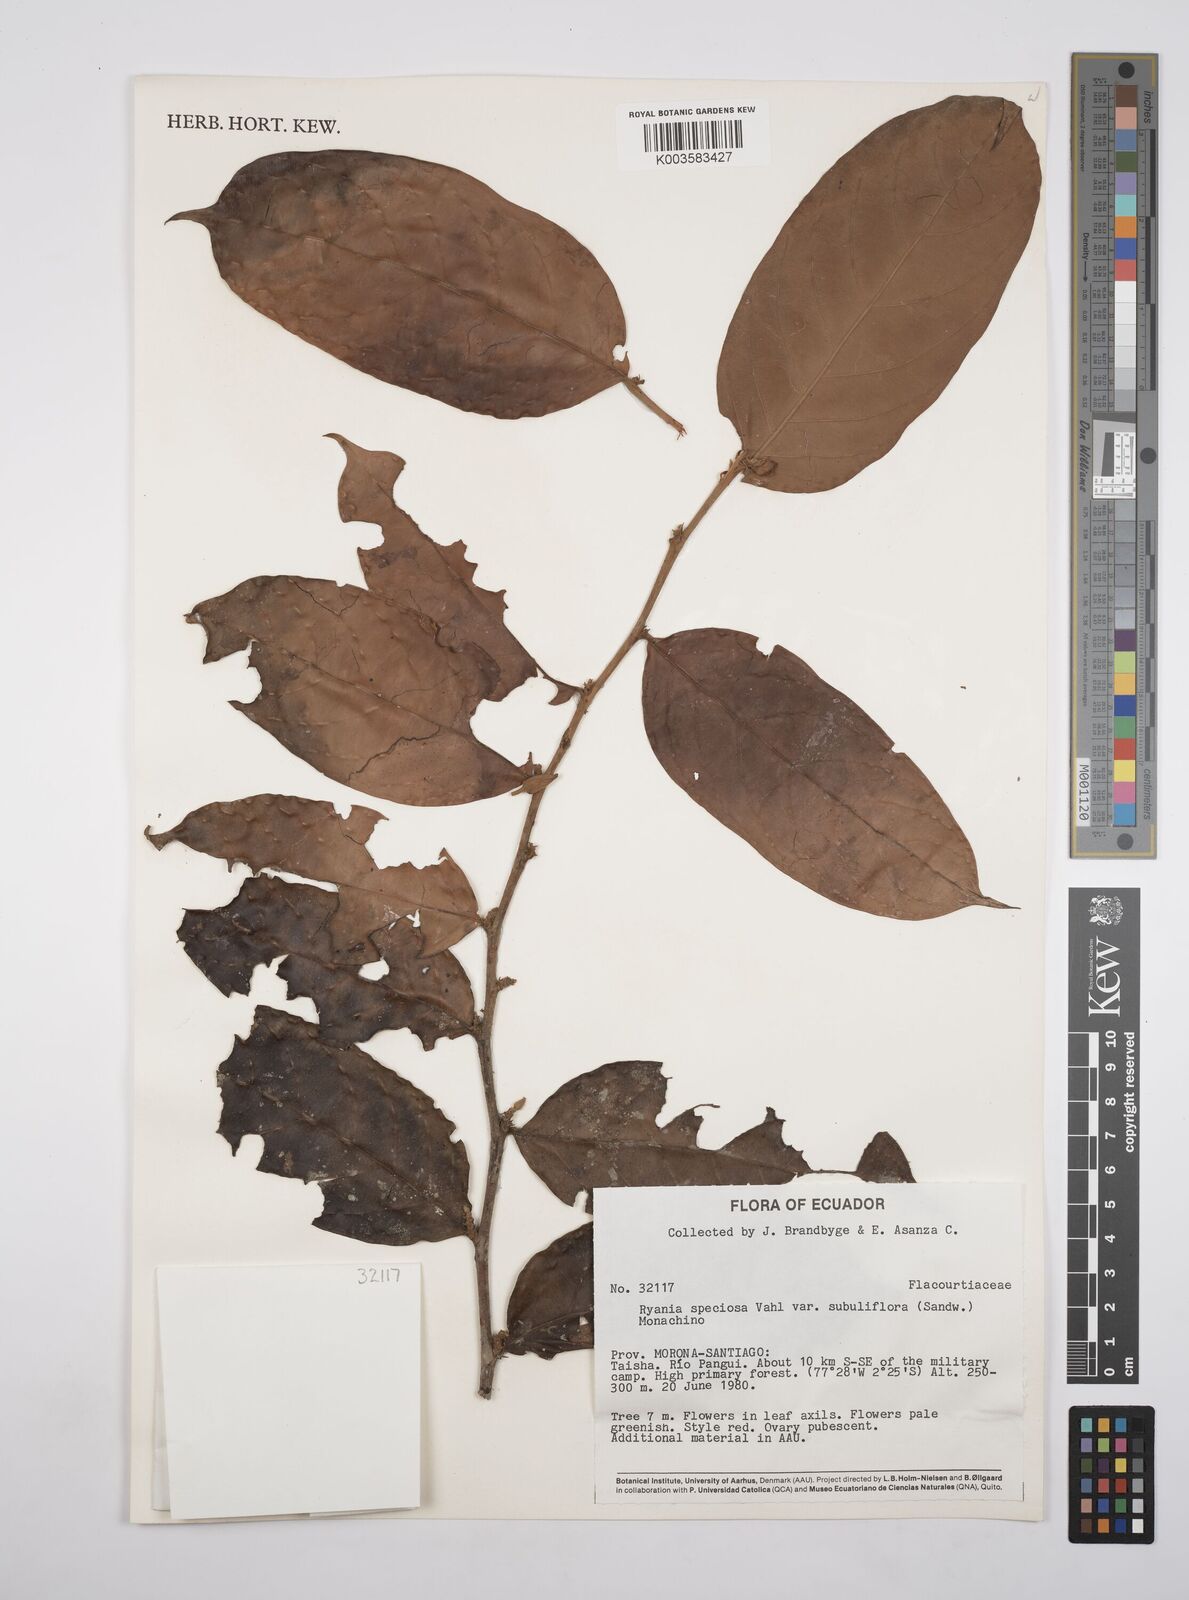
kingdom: Plantae
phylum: Tracheophyta
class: Magnoliopsida
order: Malpighiales
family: Salicaceae
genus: Ryania
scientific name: Ryania speciosa
